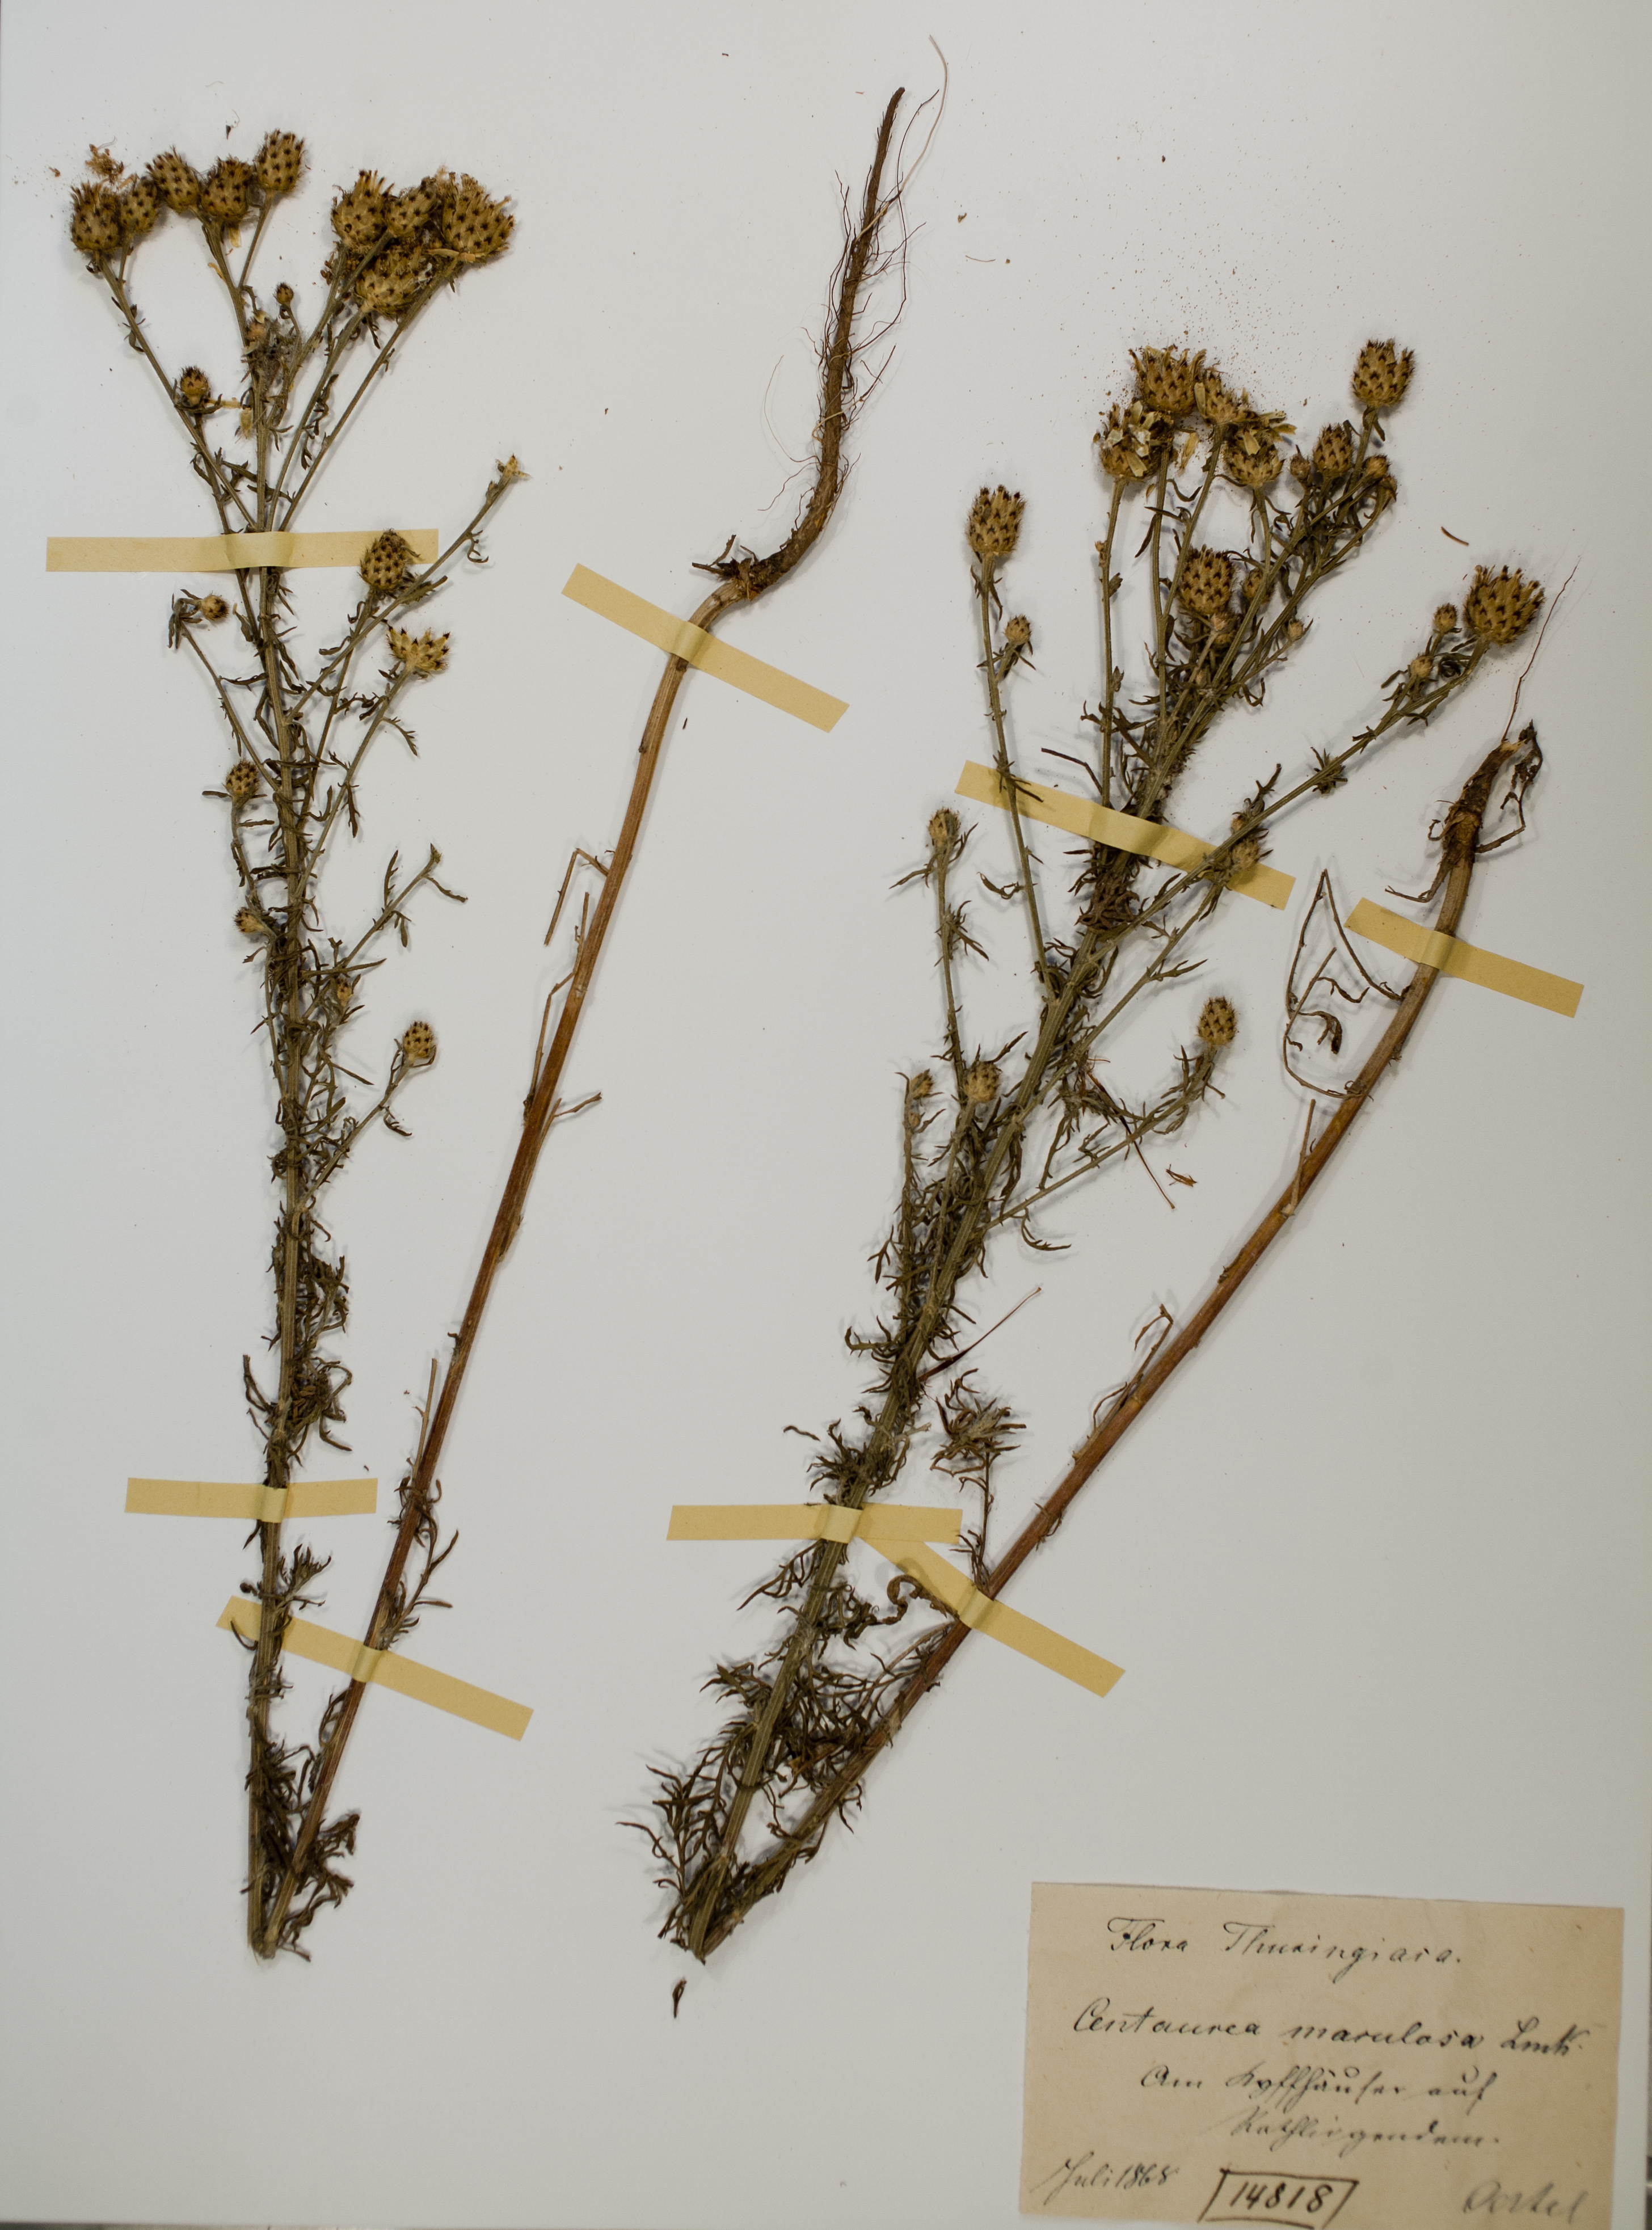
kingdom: Plantae
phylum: Tracheophyta
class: Magnoliopsida
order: Asterales
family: Asteraceae
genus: Centaurea
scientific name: Centaurea stoebe
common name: Spotted knapweed
